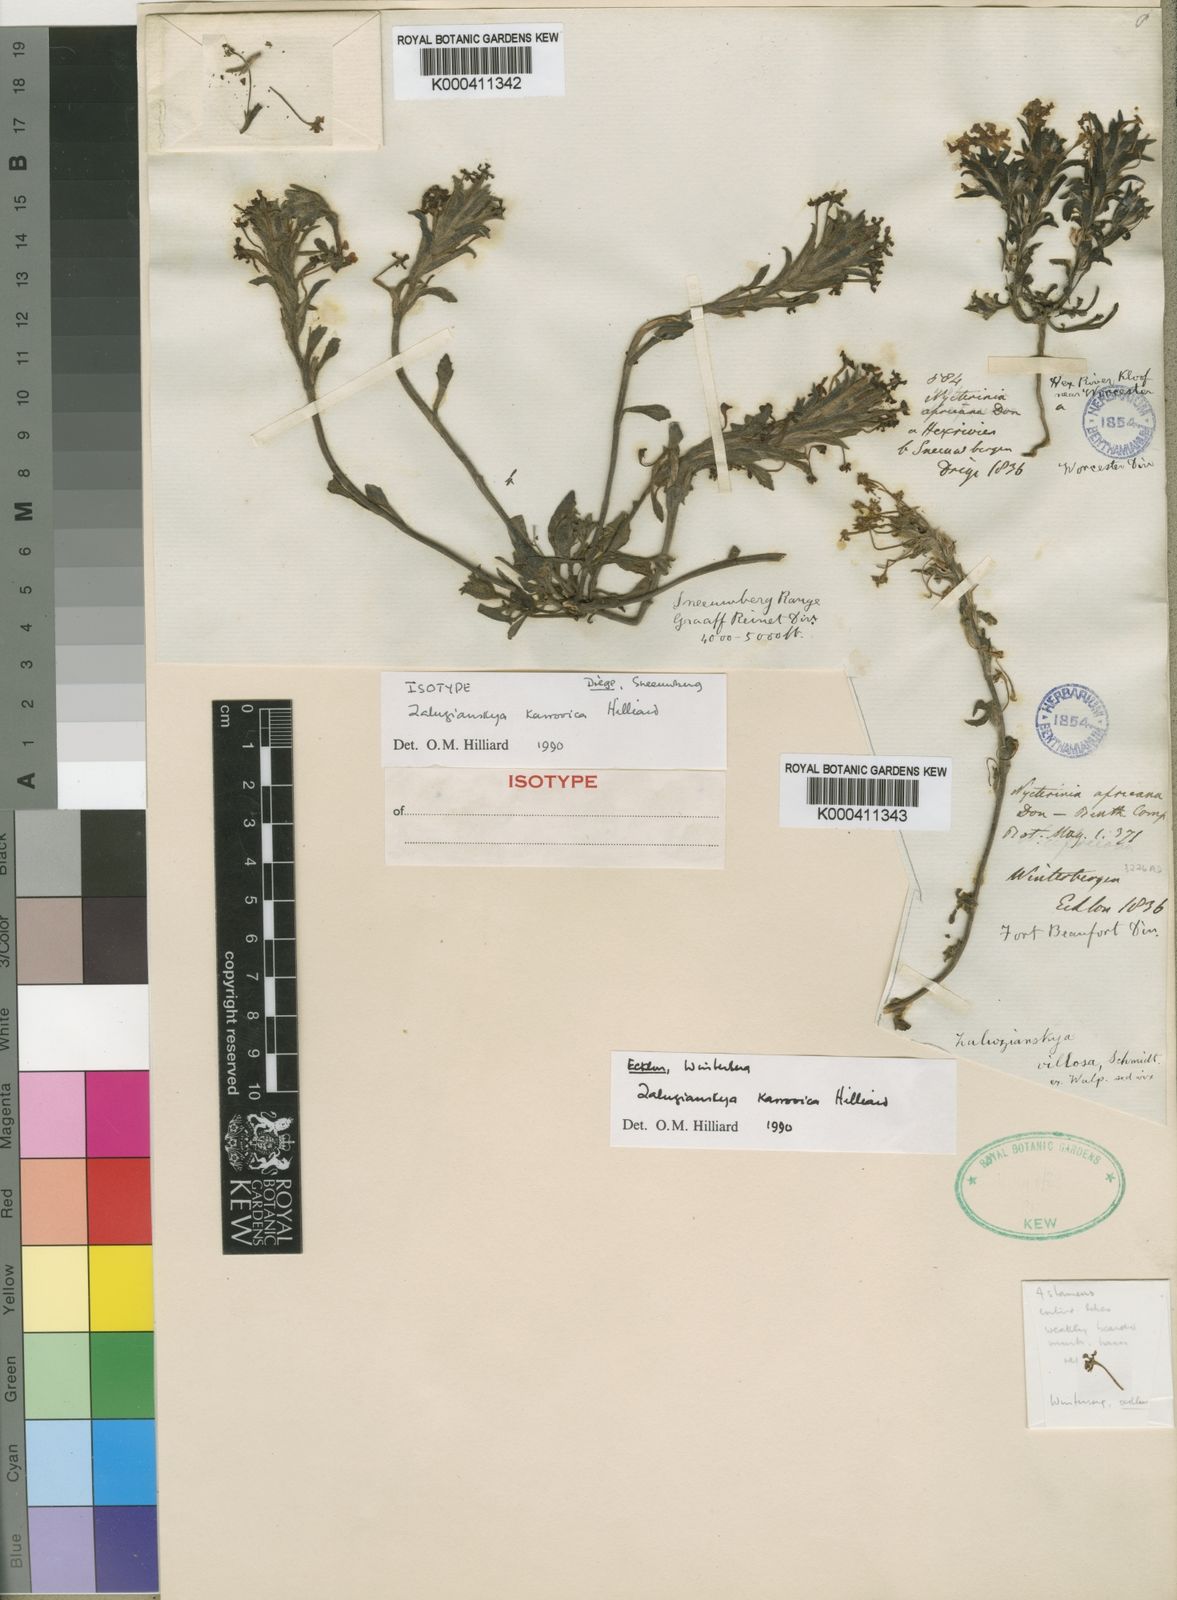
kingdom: Plantae
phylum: Tracheophyta
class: Magnoliopsida
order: Lamiales
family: Scrophulariaceae
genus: Zaluzianskya
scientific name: Zaluzianskya karrooica
